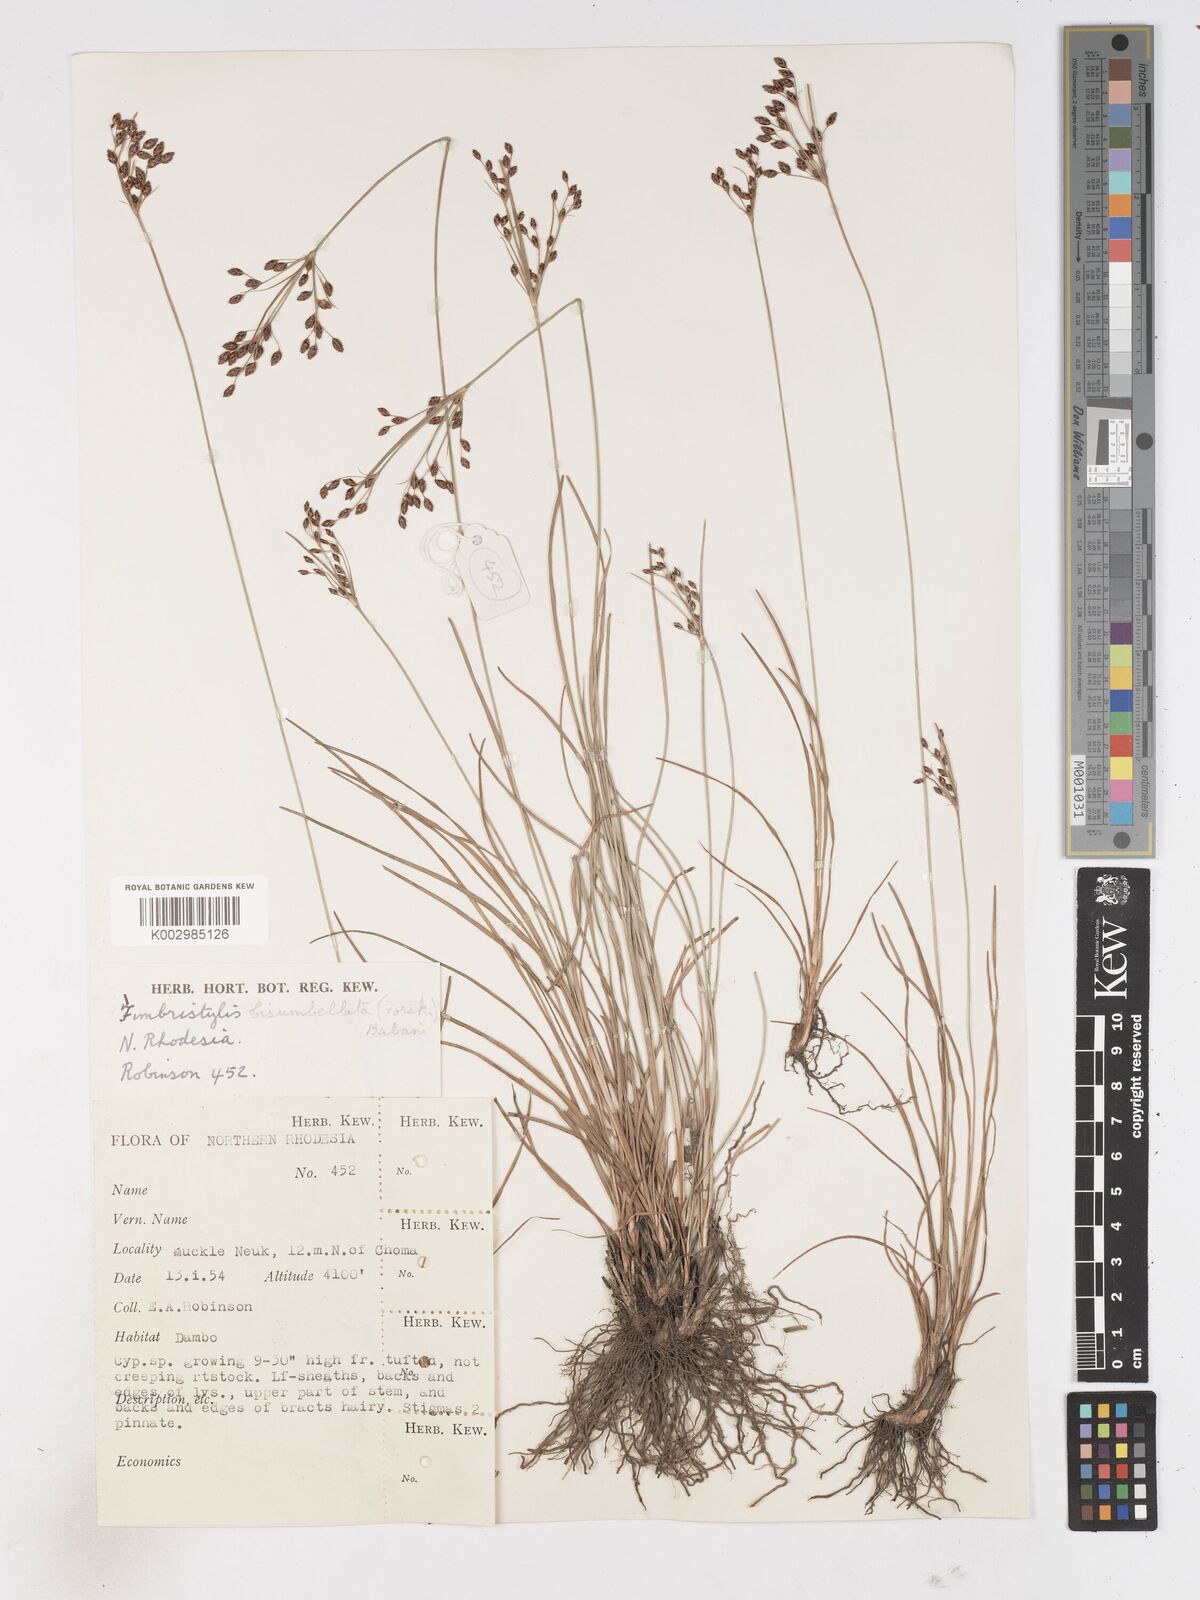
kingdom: Plantae
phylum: Tracheophyta
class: Liliopsida
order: Poales
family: Cyperaceae
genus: Fimbristylis
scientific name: Fimbristylis dichotoma
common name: Forked fimbry
